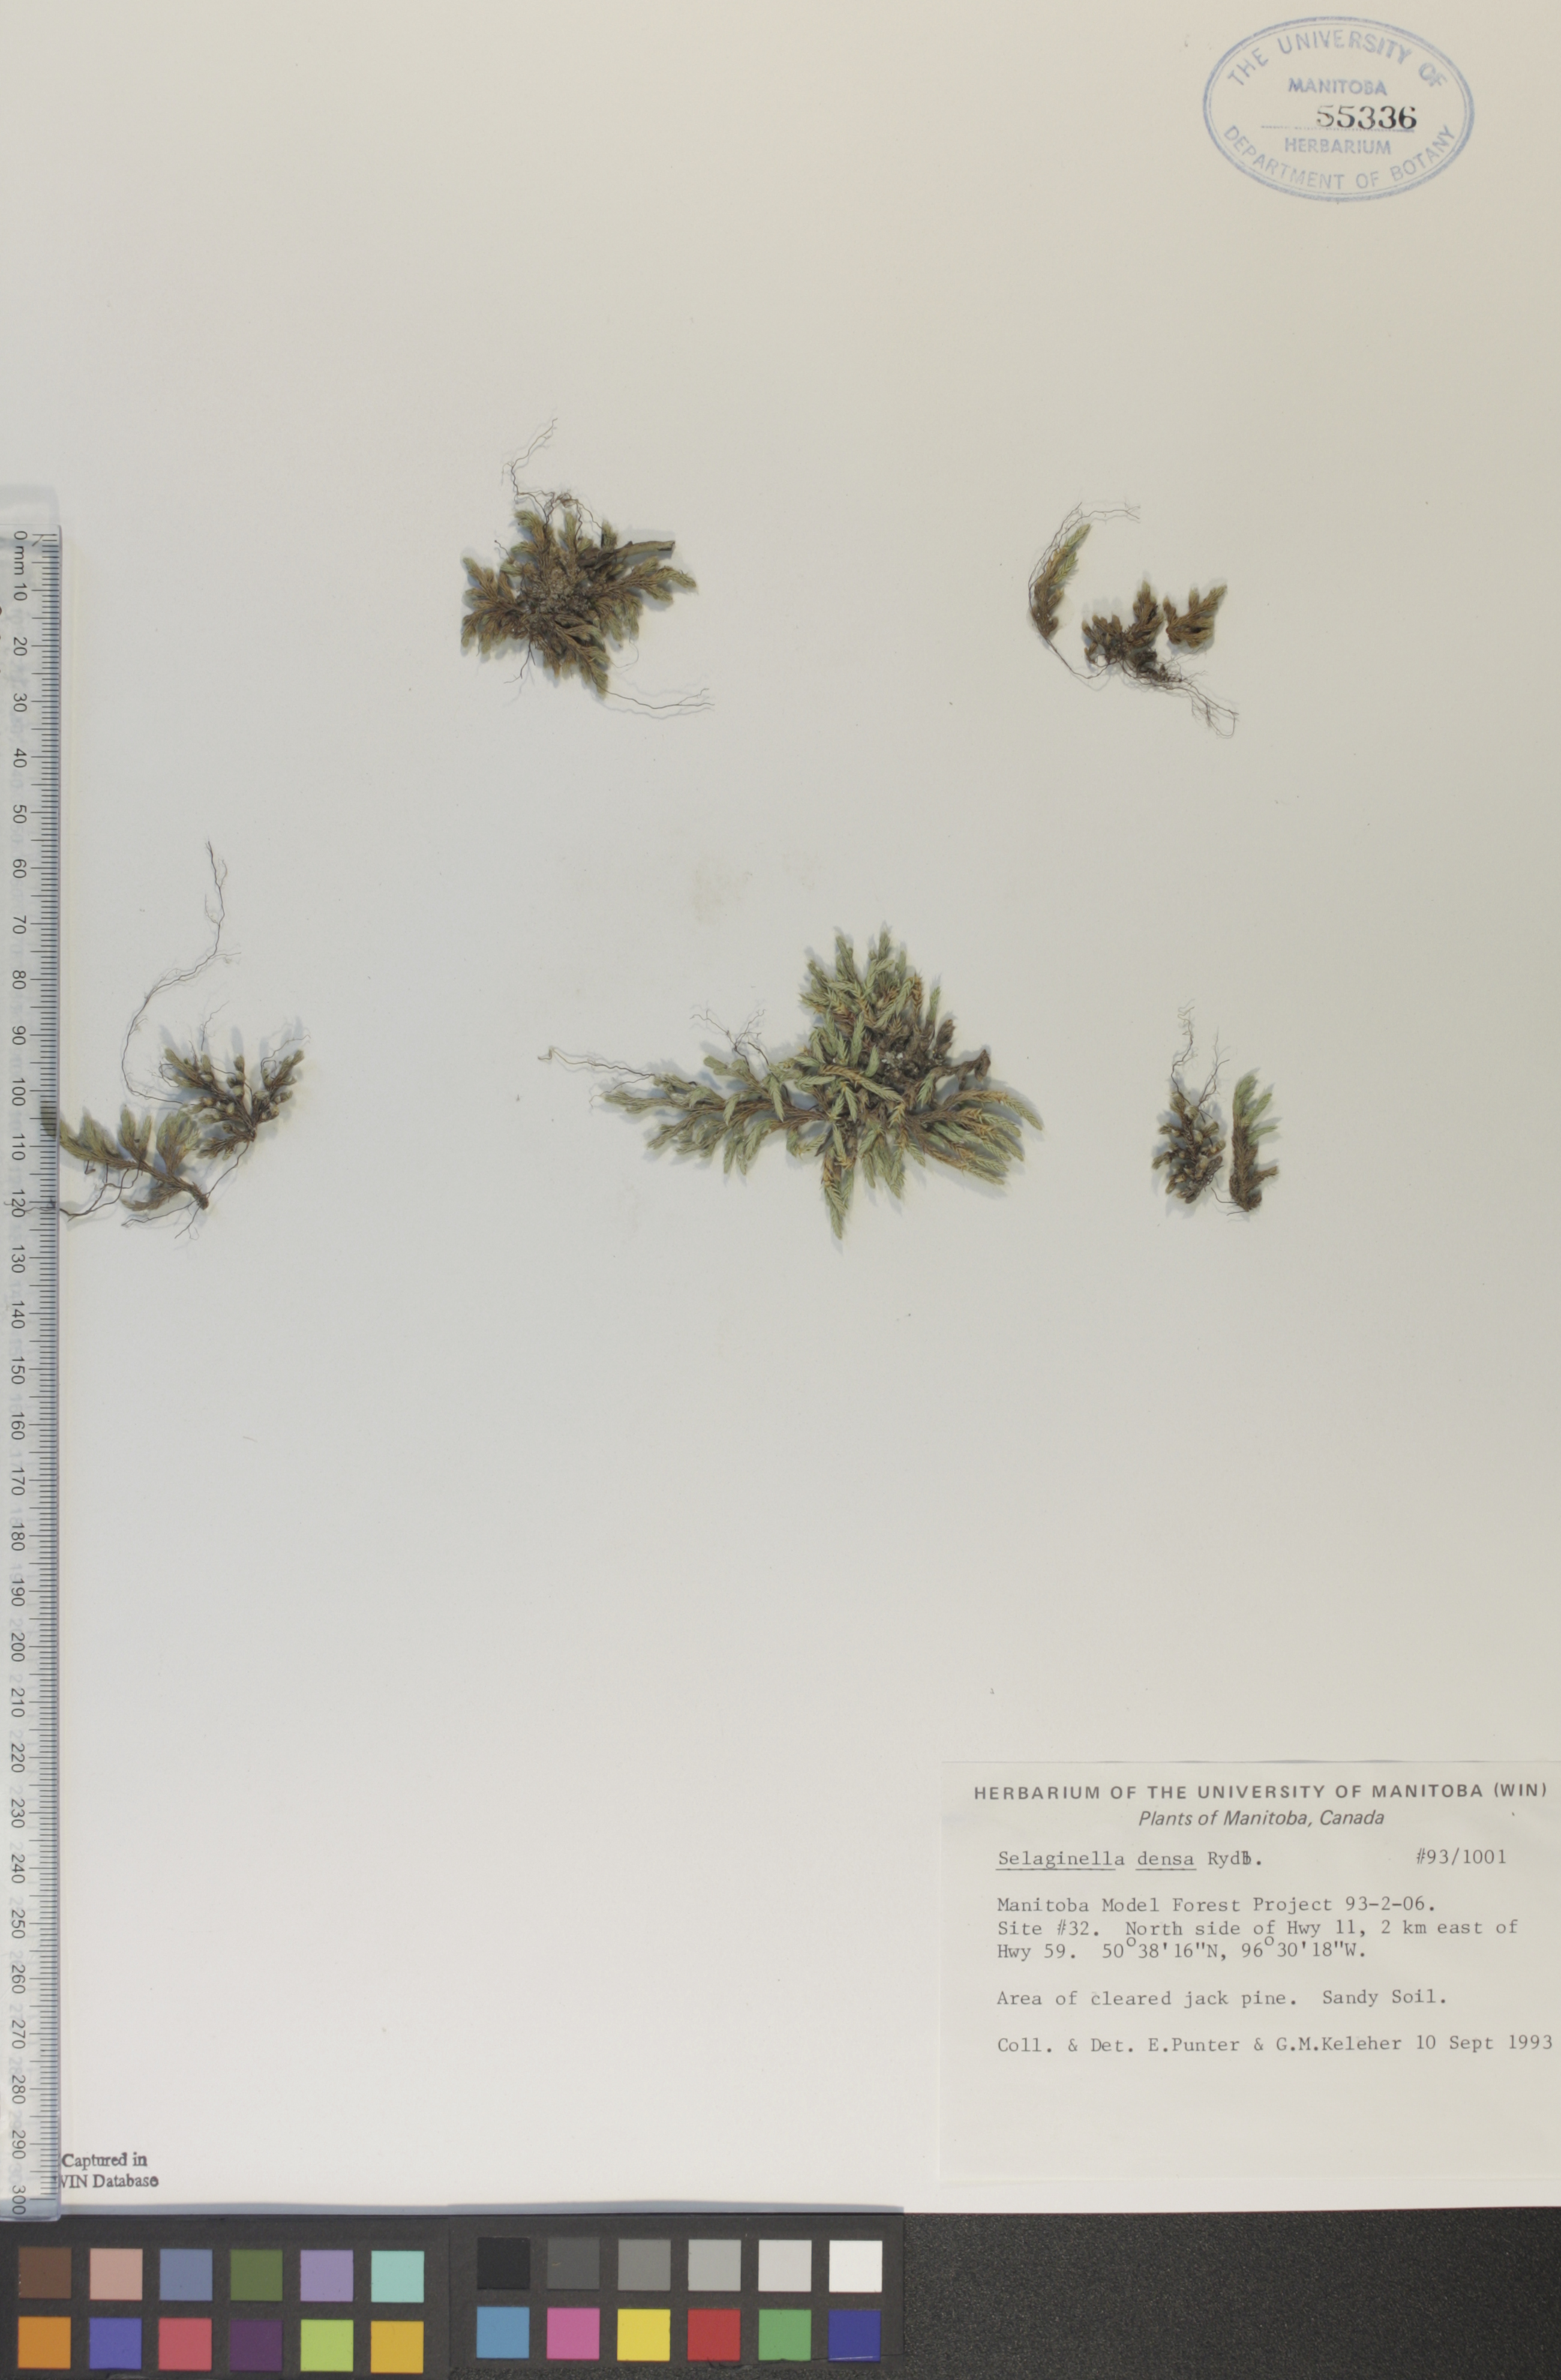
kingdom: Plantae
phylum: Tracheophyta
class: Lycopodiopsida
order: Selaginellales
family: Selaginellaceae
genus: Selaginella
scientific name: Selaginella densa
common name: Mountain spike-moss
